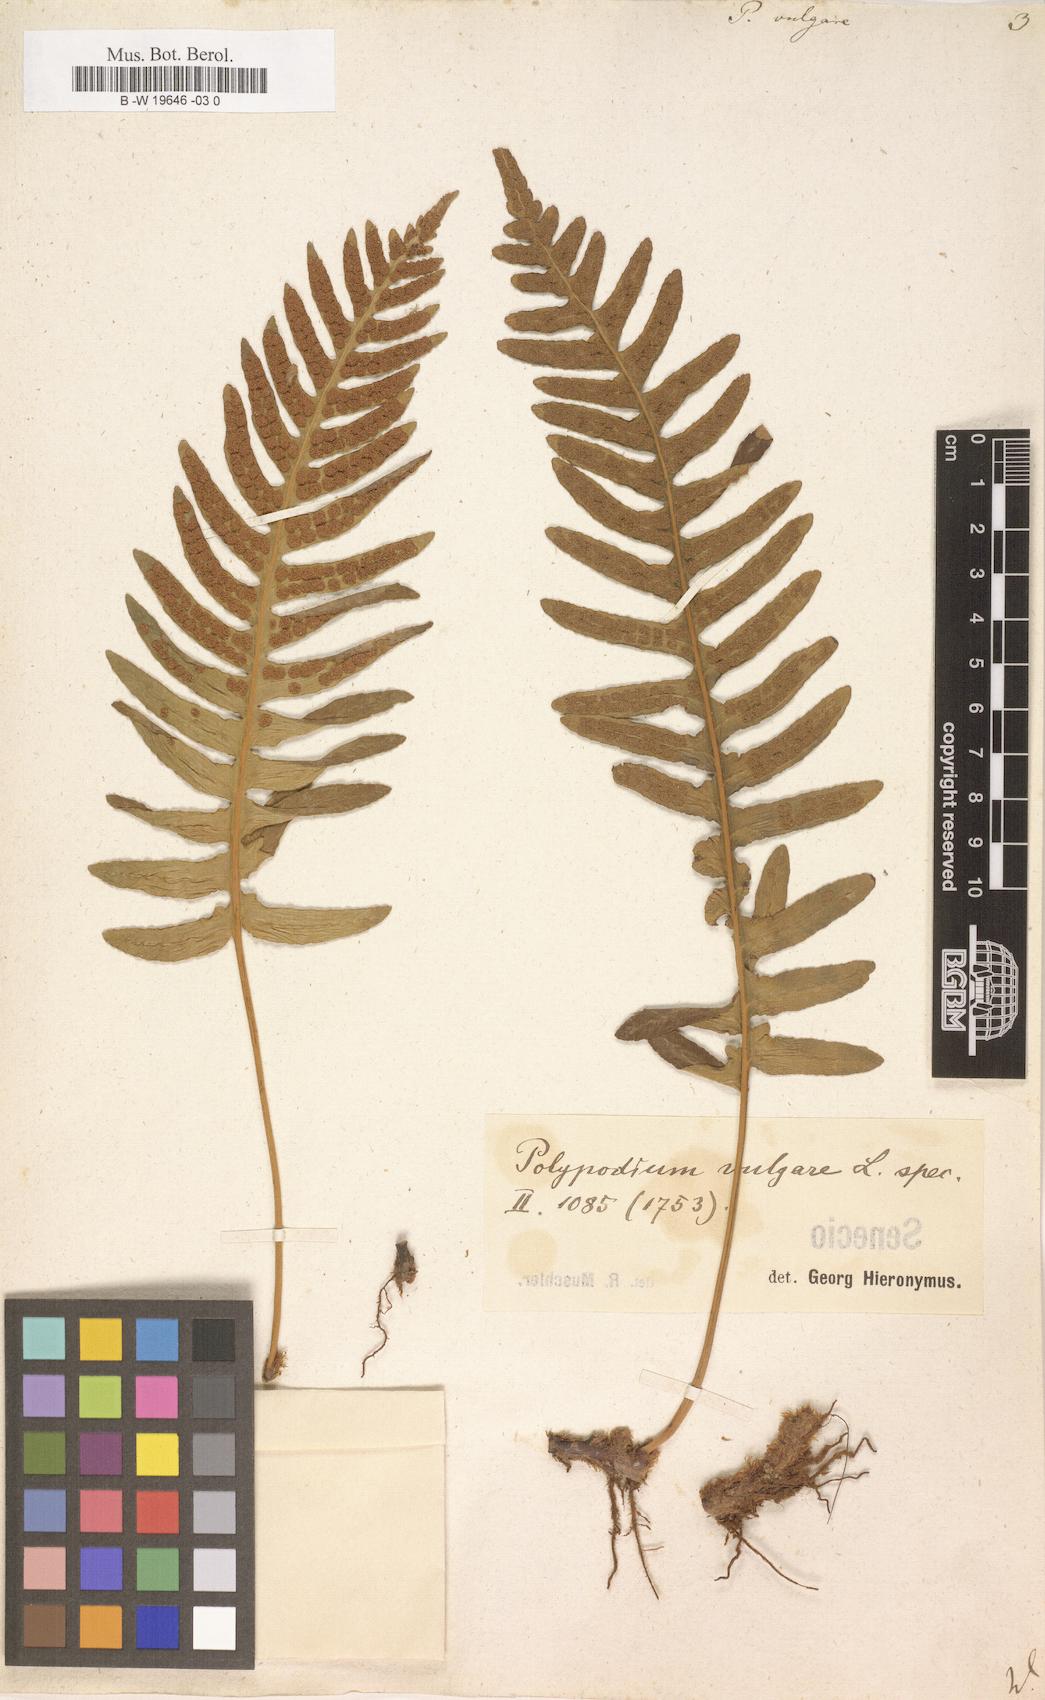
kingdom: Plantae
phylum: Tracheophyta
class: Polypodiopsida
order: Polypodiales
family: Polypodiaceae
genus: Polypodium
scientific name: Polypodium vulgare
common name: Common polypody
